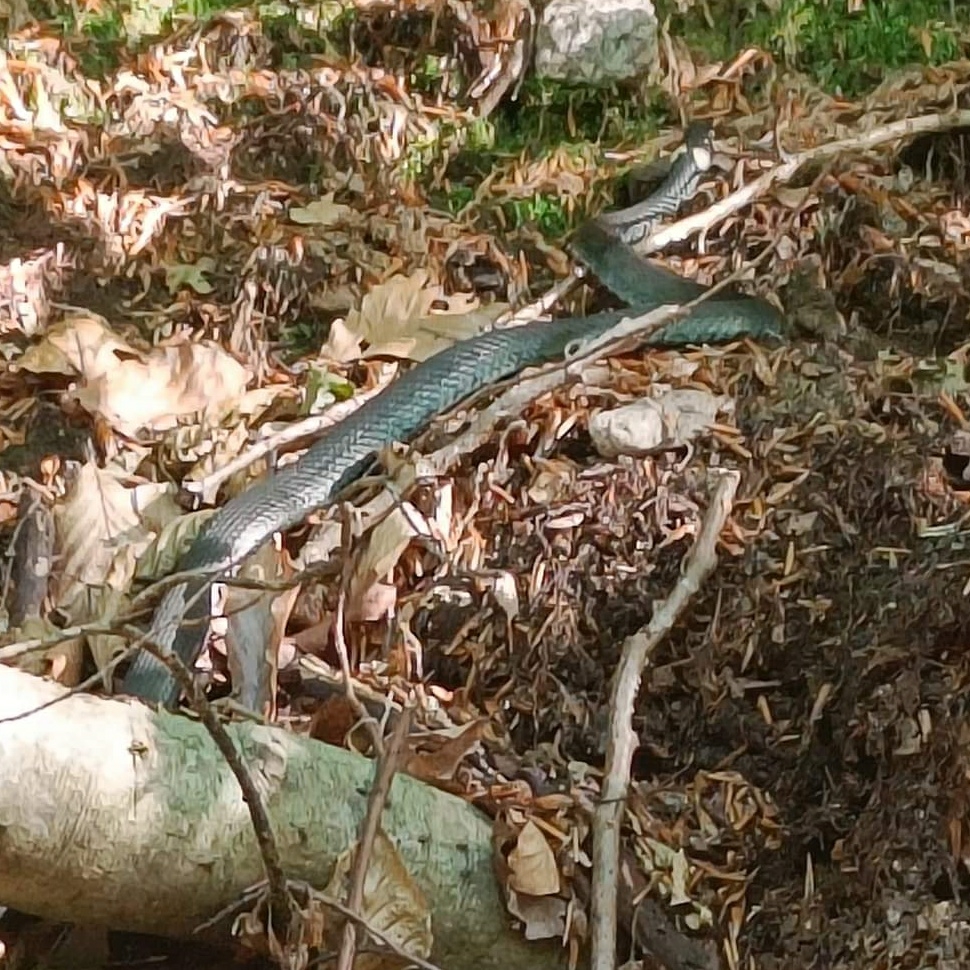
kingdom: Animalia
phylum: Chordata
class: Squamata
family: Colubridae
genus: Natrix
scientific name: Natrix natrix
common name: Snog
